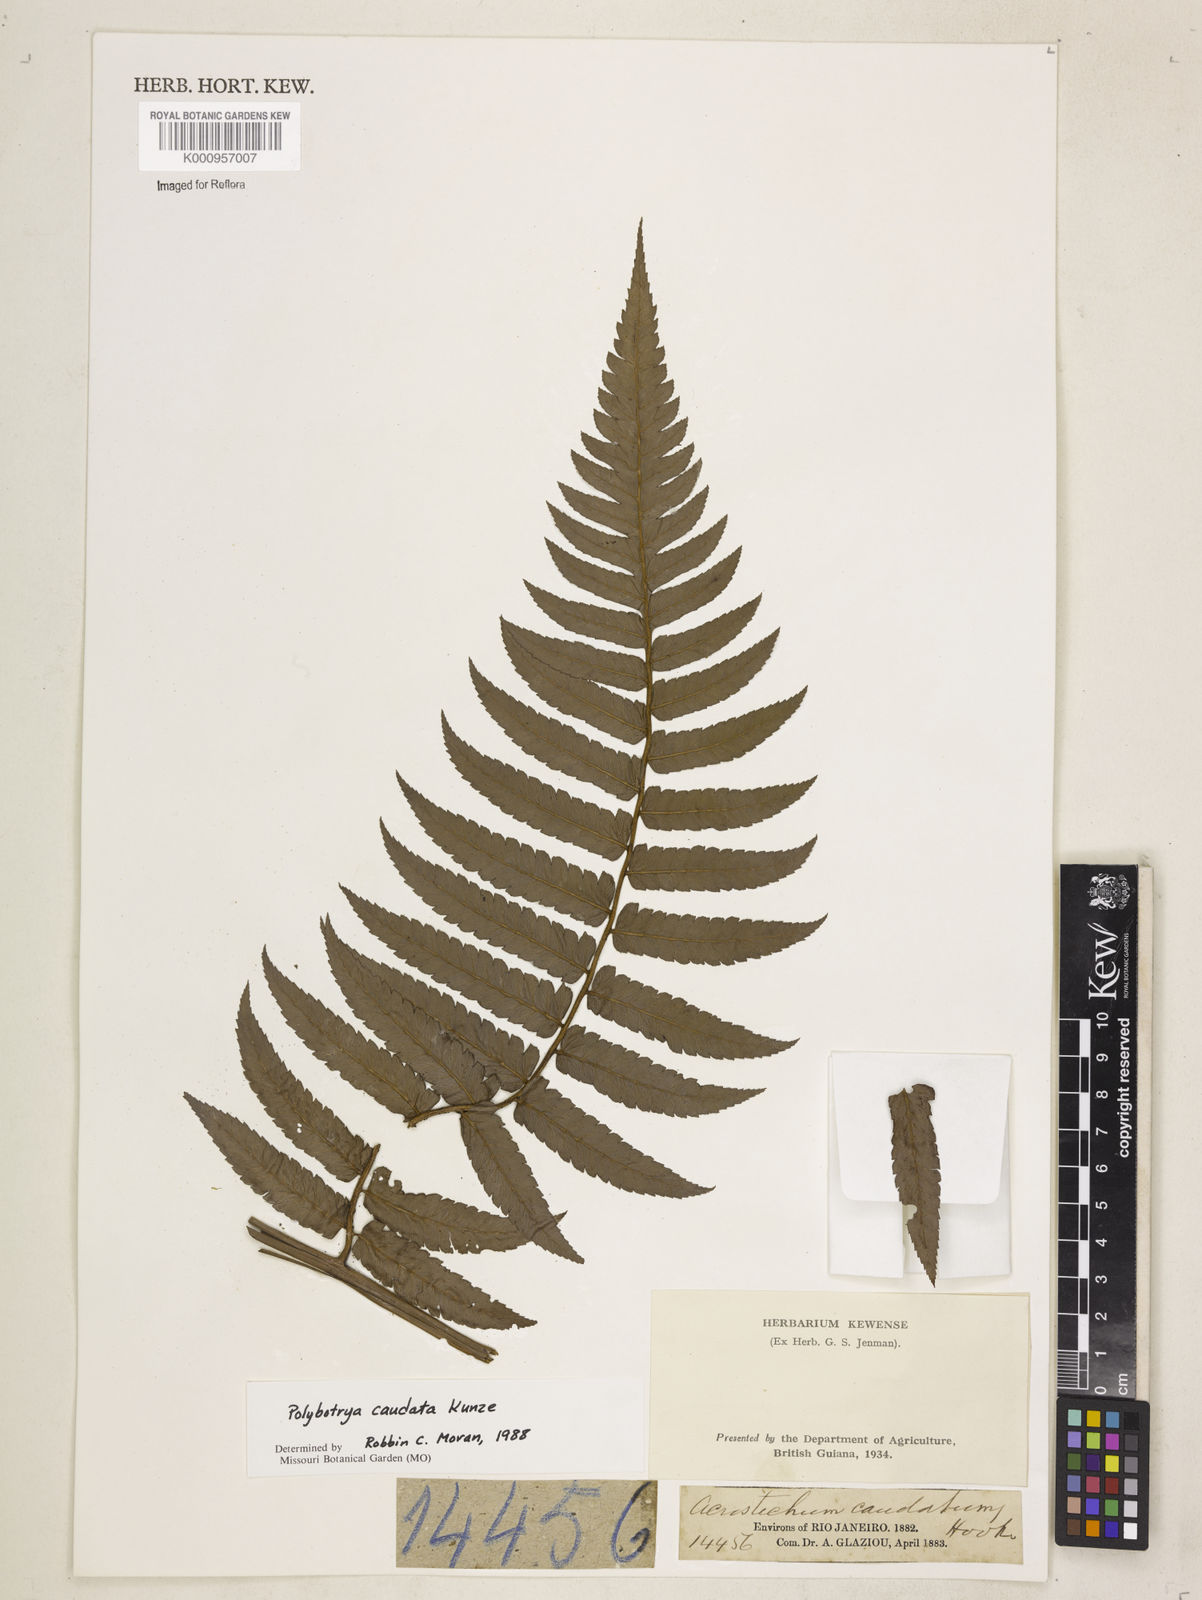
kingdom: Plantae
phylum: Tracheophyta
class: Polypodiopsida
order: Polypodiales
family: Dryopteridaceae
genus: Polybotrya
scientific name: Polybotrya caudata
